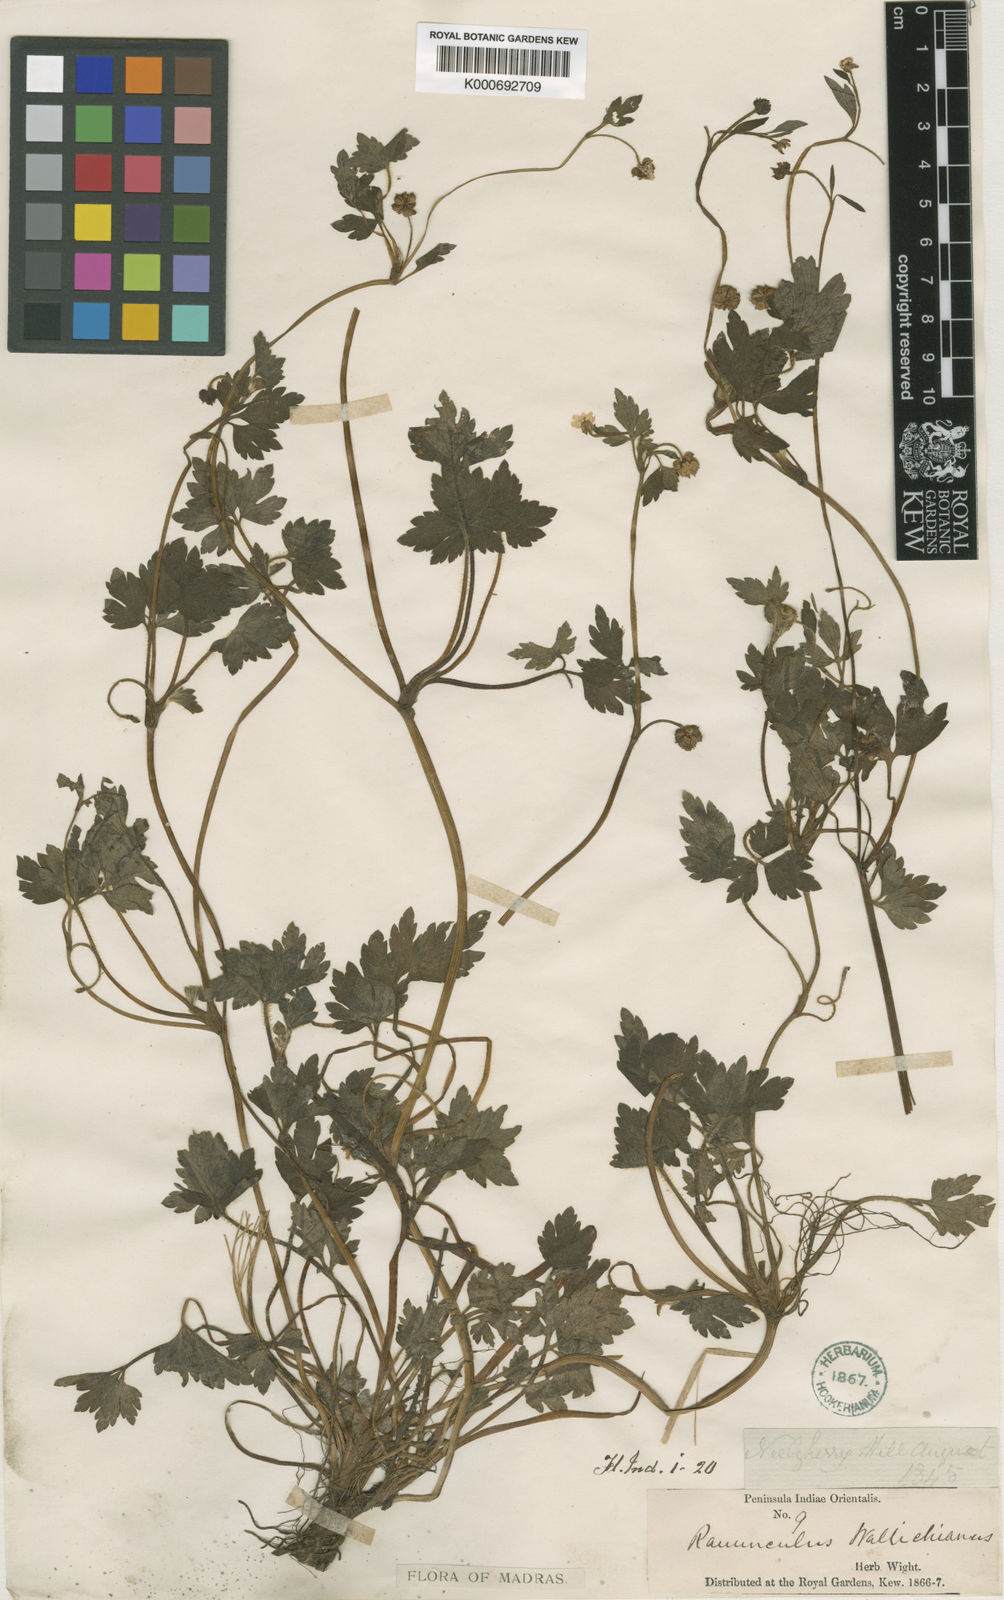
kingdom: Plantae
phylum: Tracheophyta
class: Magnoliopsida
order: Ranunculales
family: Ranunculaceae
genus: Ranunculus
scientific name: Ranunculus wallichianus
